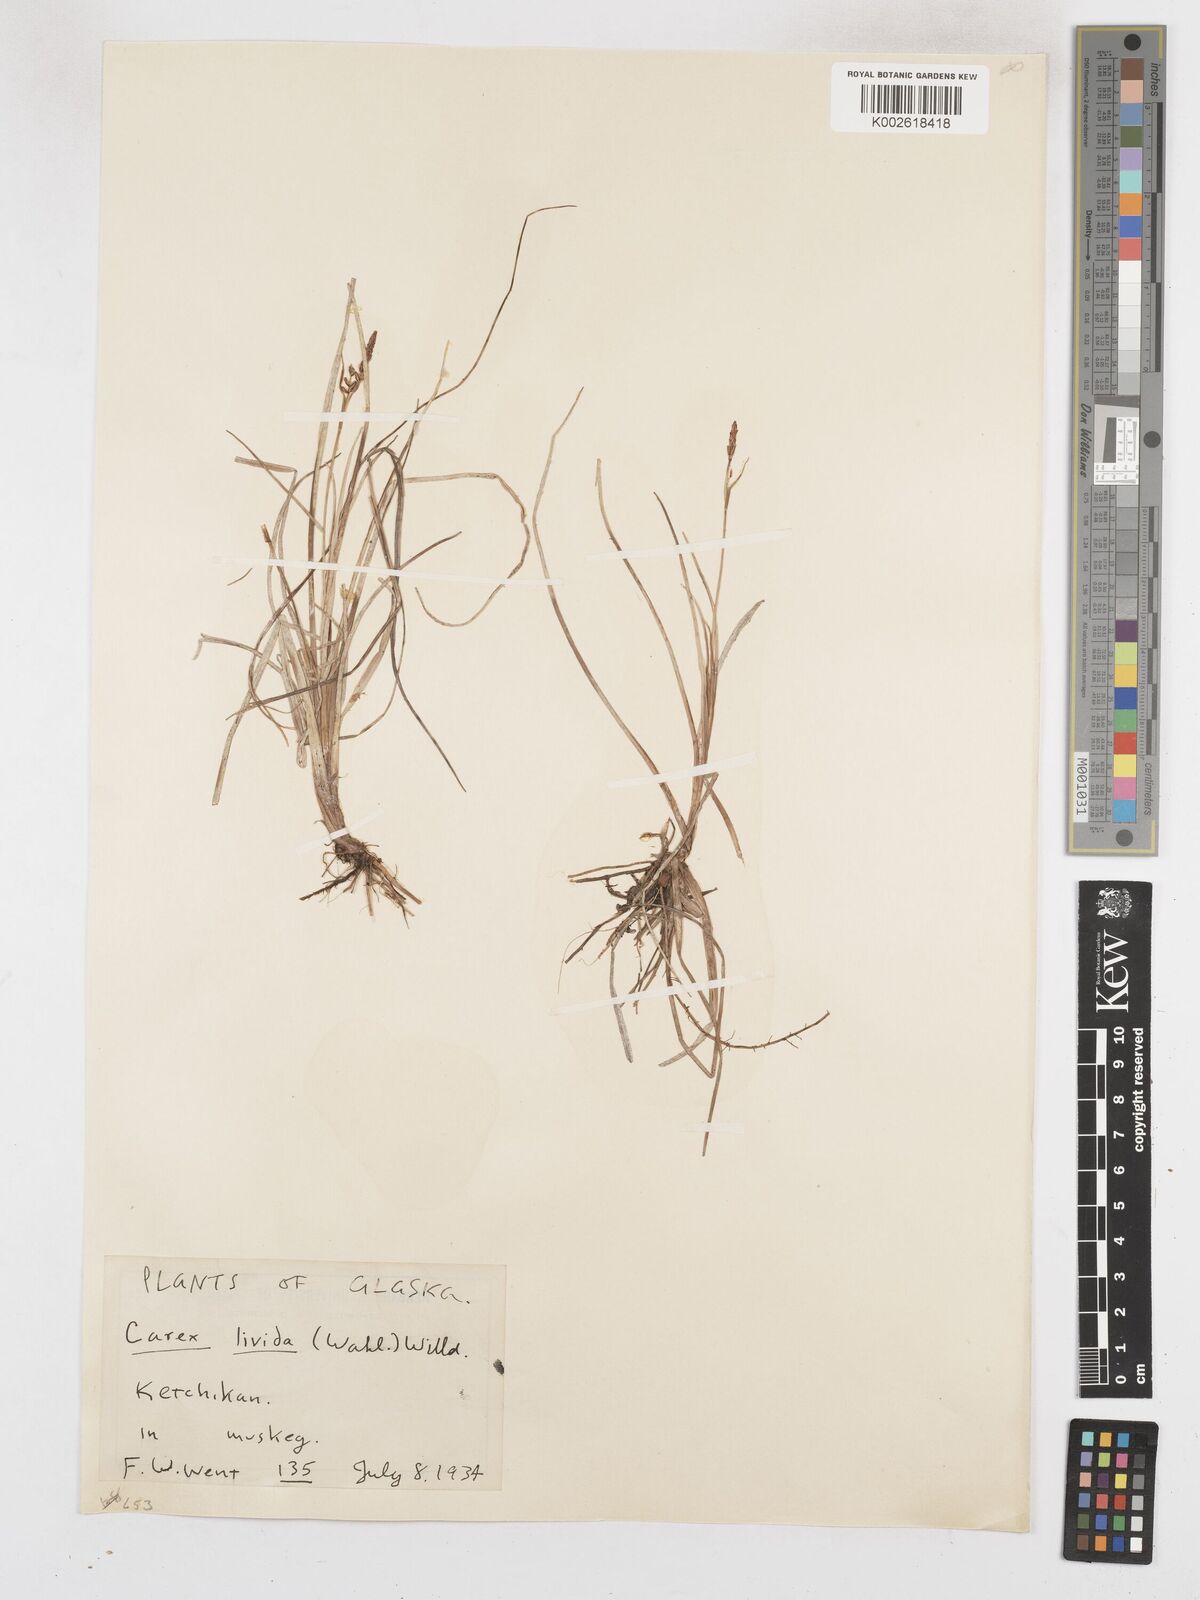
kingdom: Plantae
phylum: Tracheophyta
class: Liliopsida
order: Poales
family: Cyperaceae
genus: Carex
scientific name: Carex livida
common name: Livid sedge
